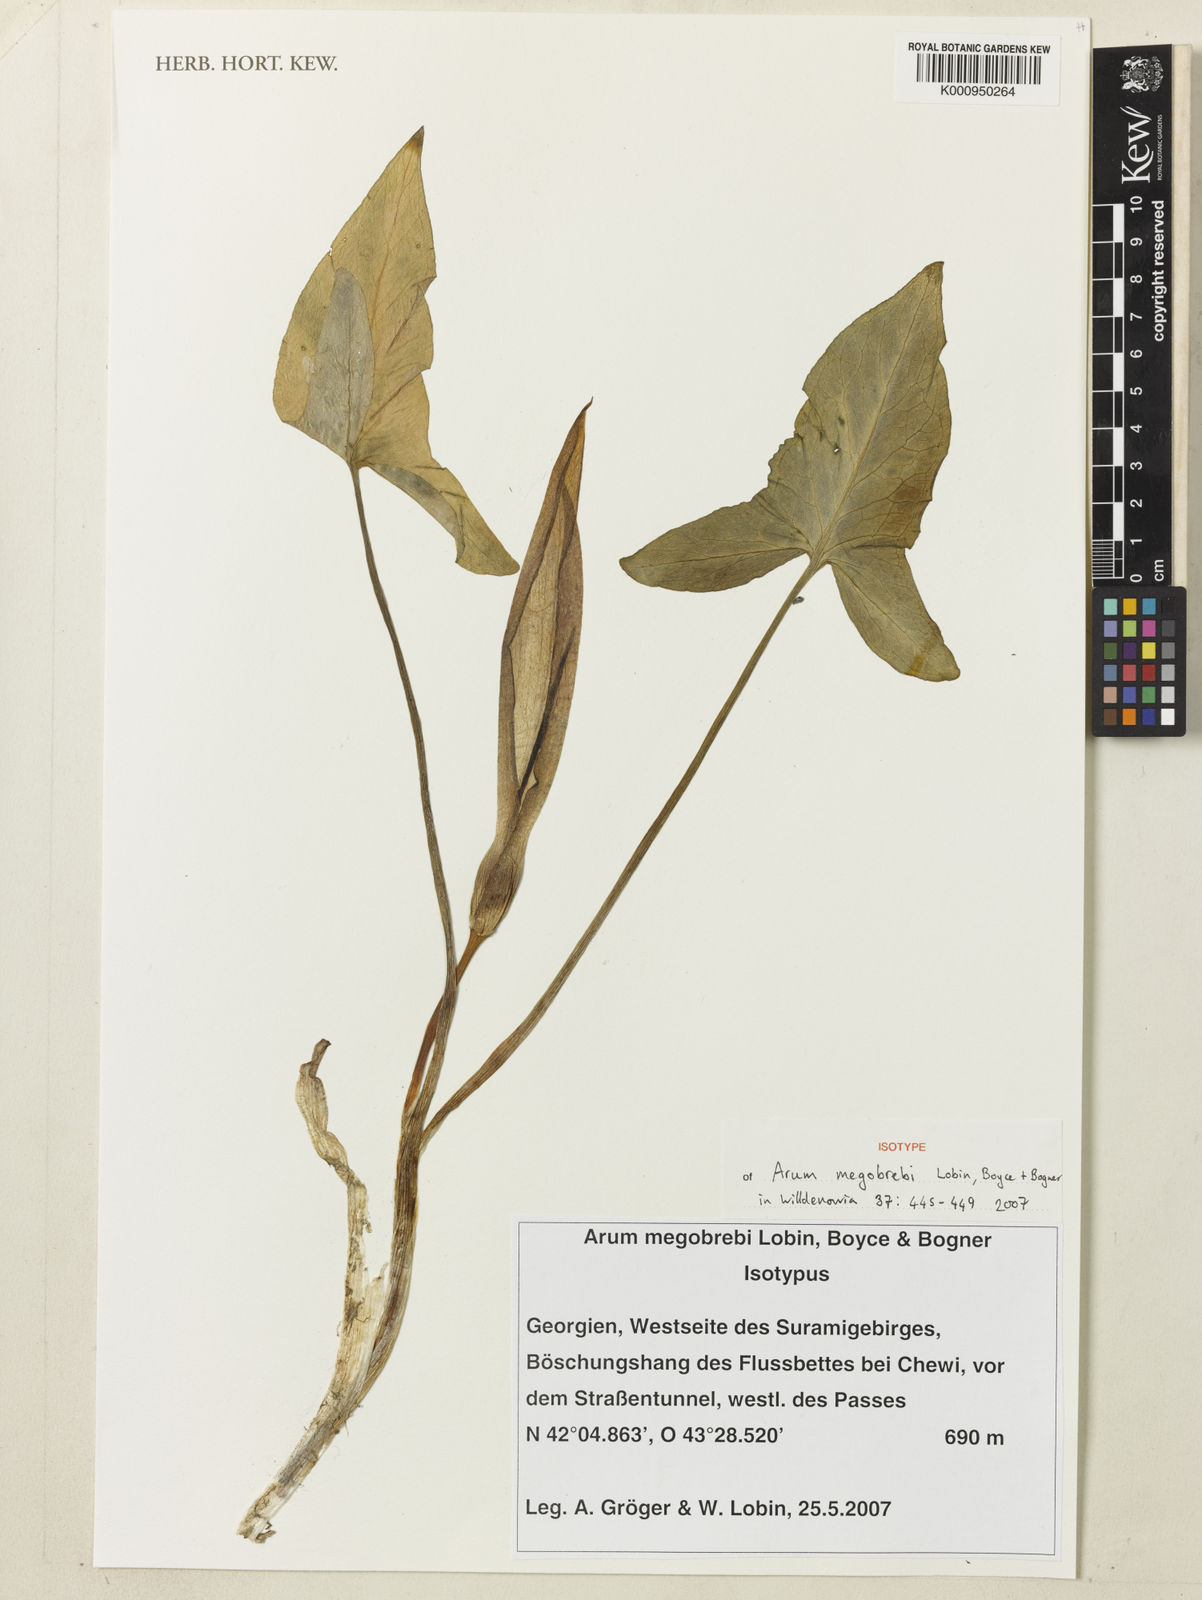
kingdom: Plantae
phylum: Tracheophyta
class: Liliopsida
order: Alismatales
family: Araceae
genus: Arum
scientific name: Arum megobrebi
